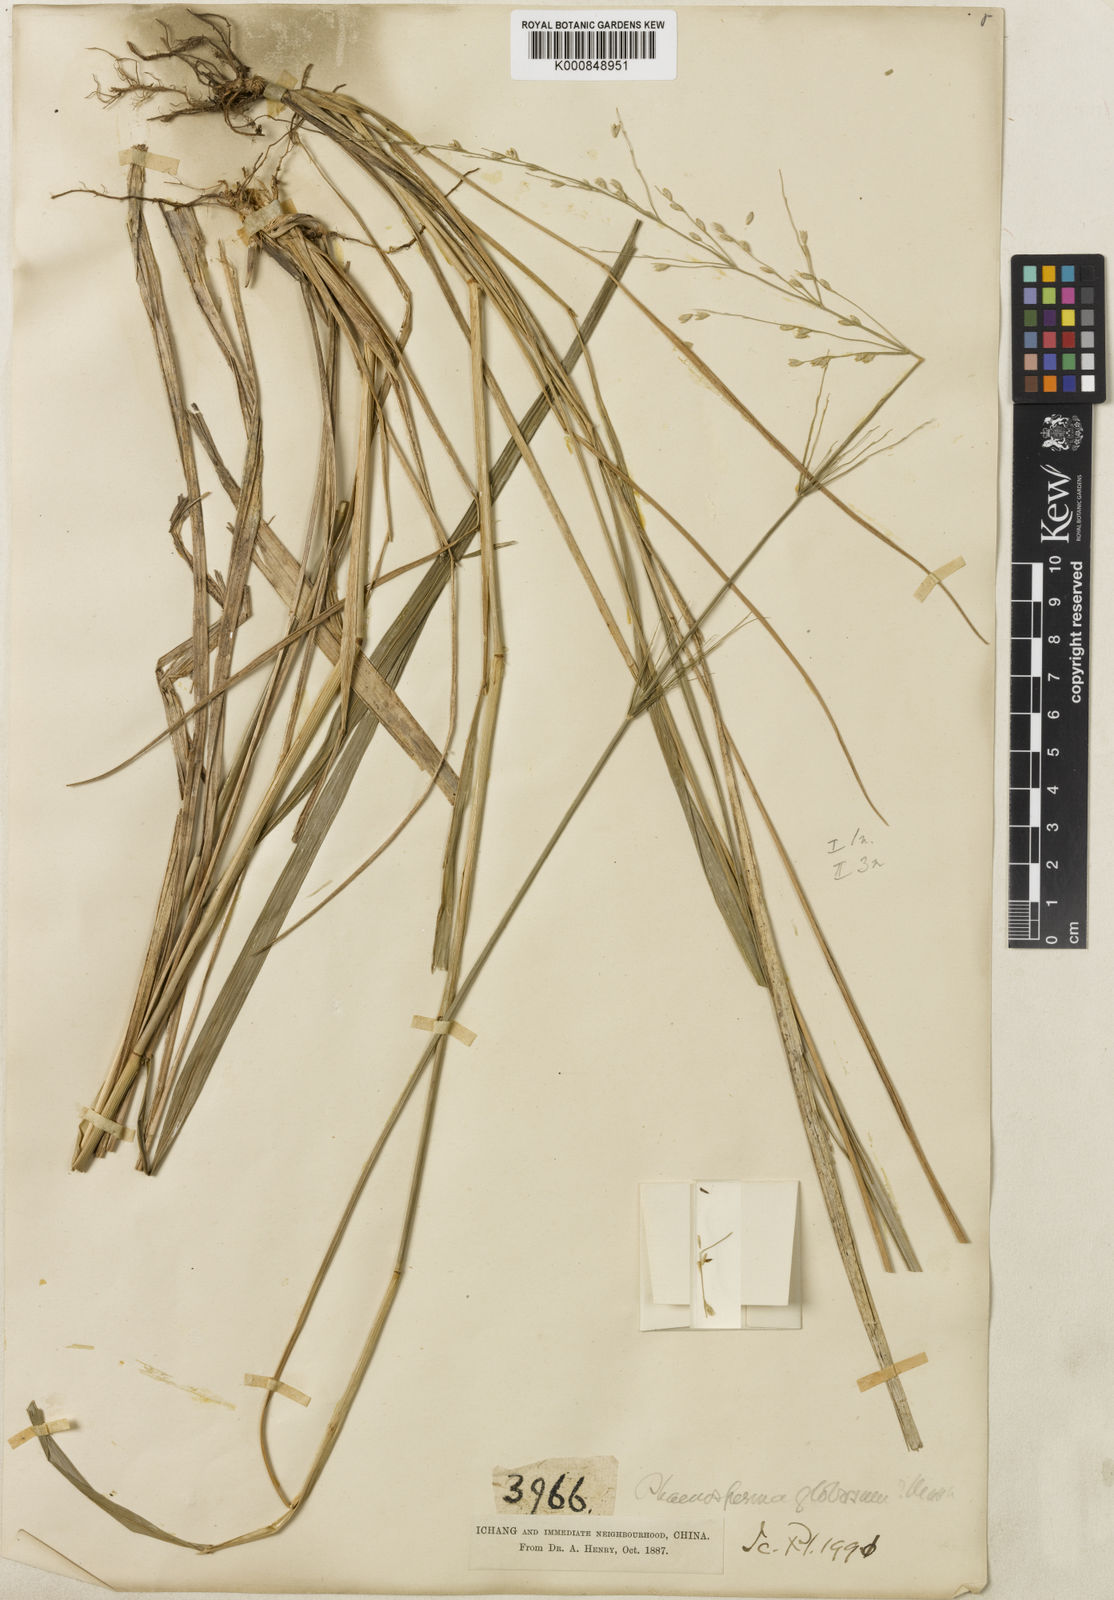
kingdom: Plantae
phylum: Tracheophyta
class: Liliopsida
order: Poales
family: Poaceae
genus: Phaenosperma
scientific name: Phaenosperma
